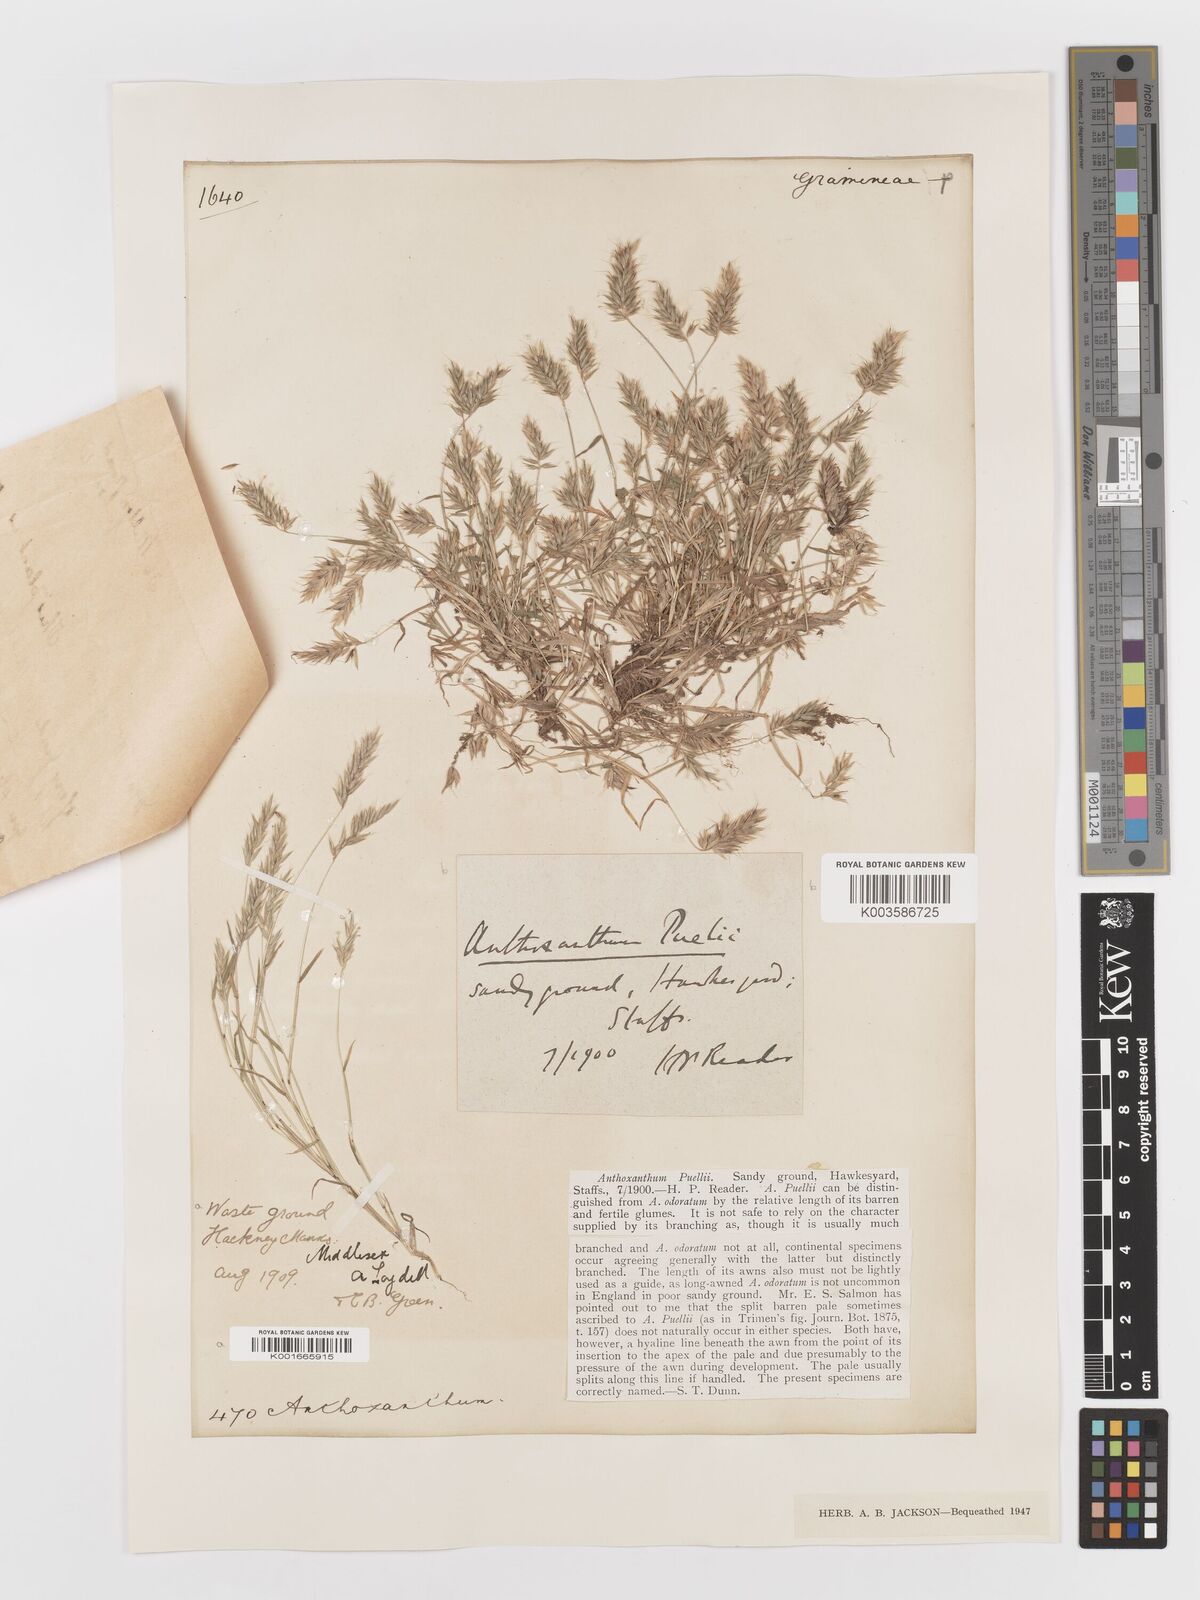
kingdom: Plantae
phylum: Tracheophyta
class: Liliopsida
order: Poales
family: Poaceae
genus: Anthoxanthum
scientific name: Anthoxanthum aristatum
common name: Annual vernal-grass
